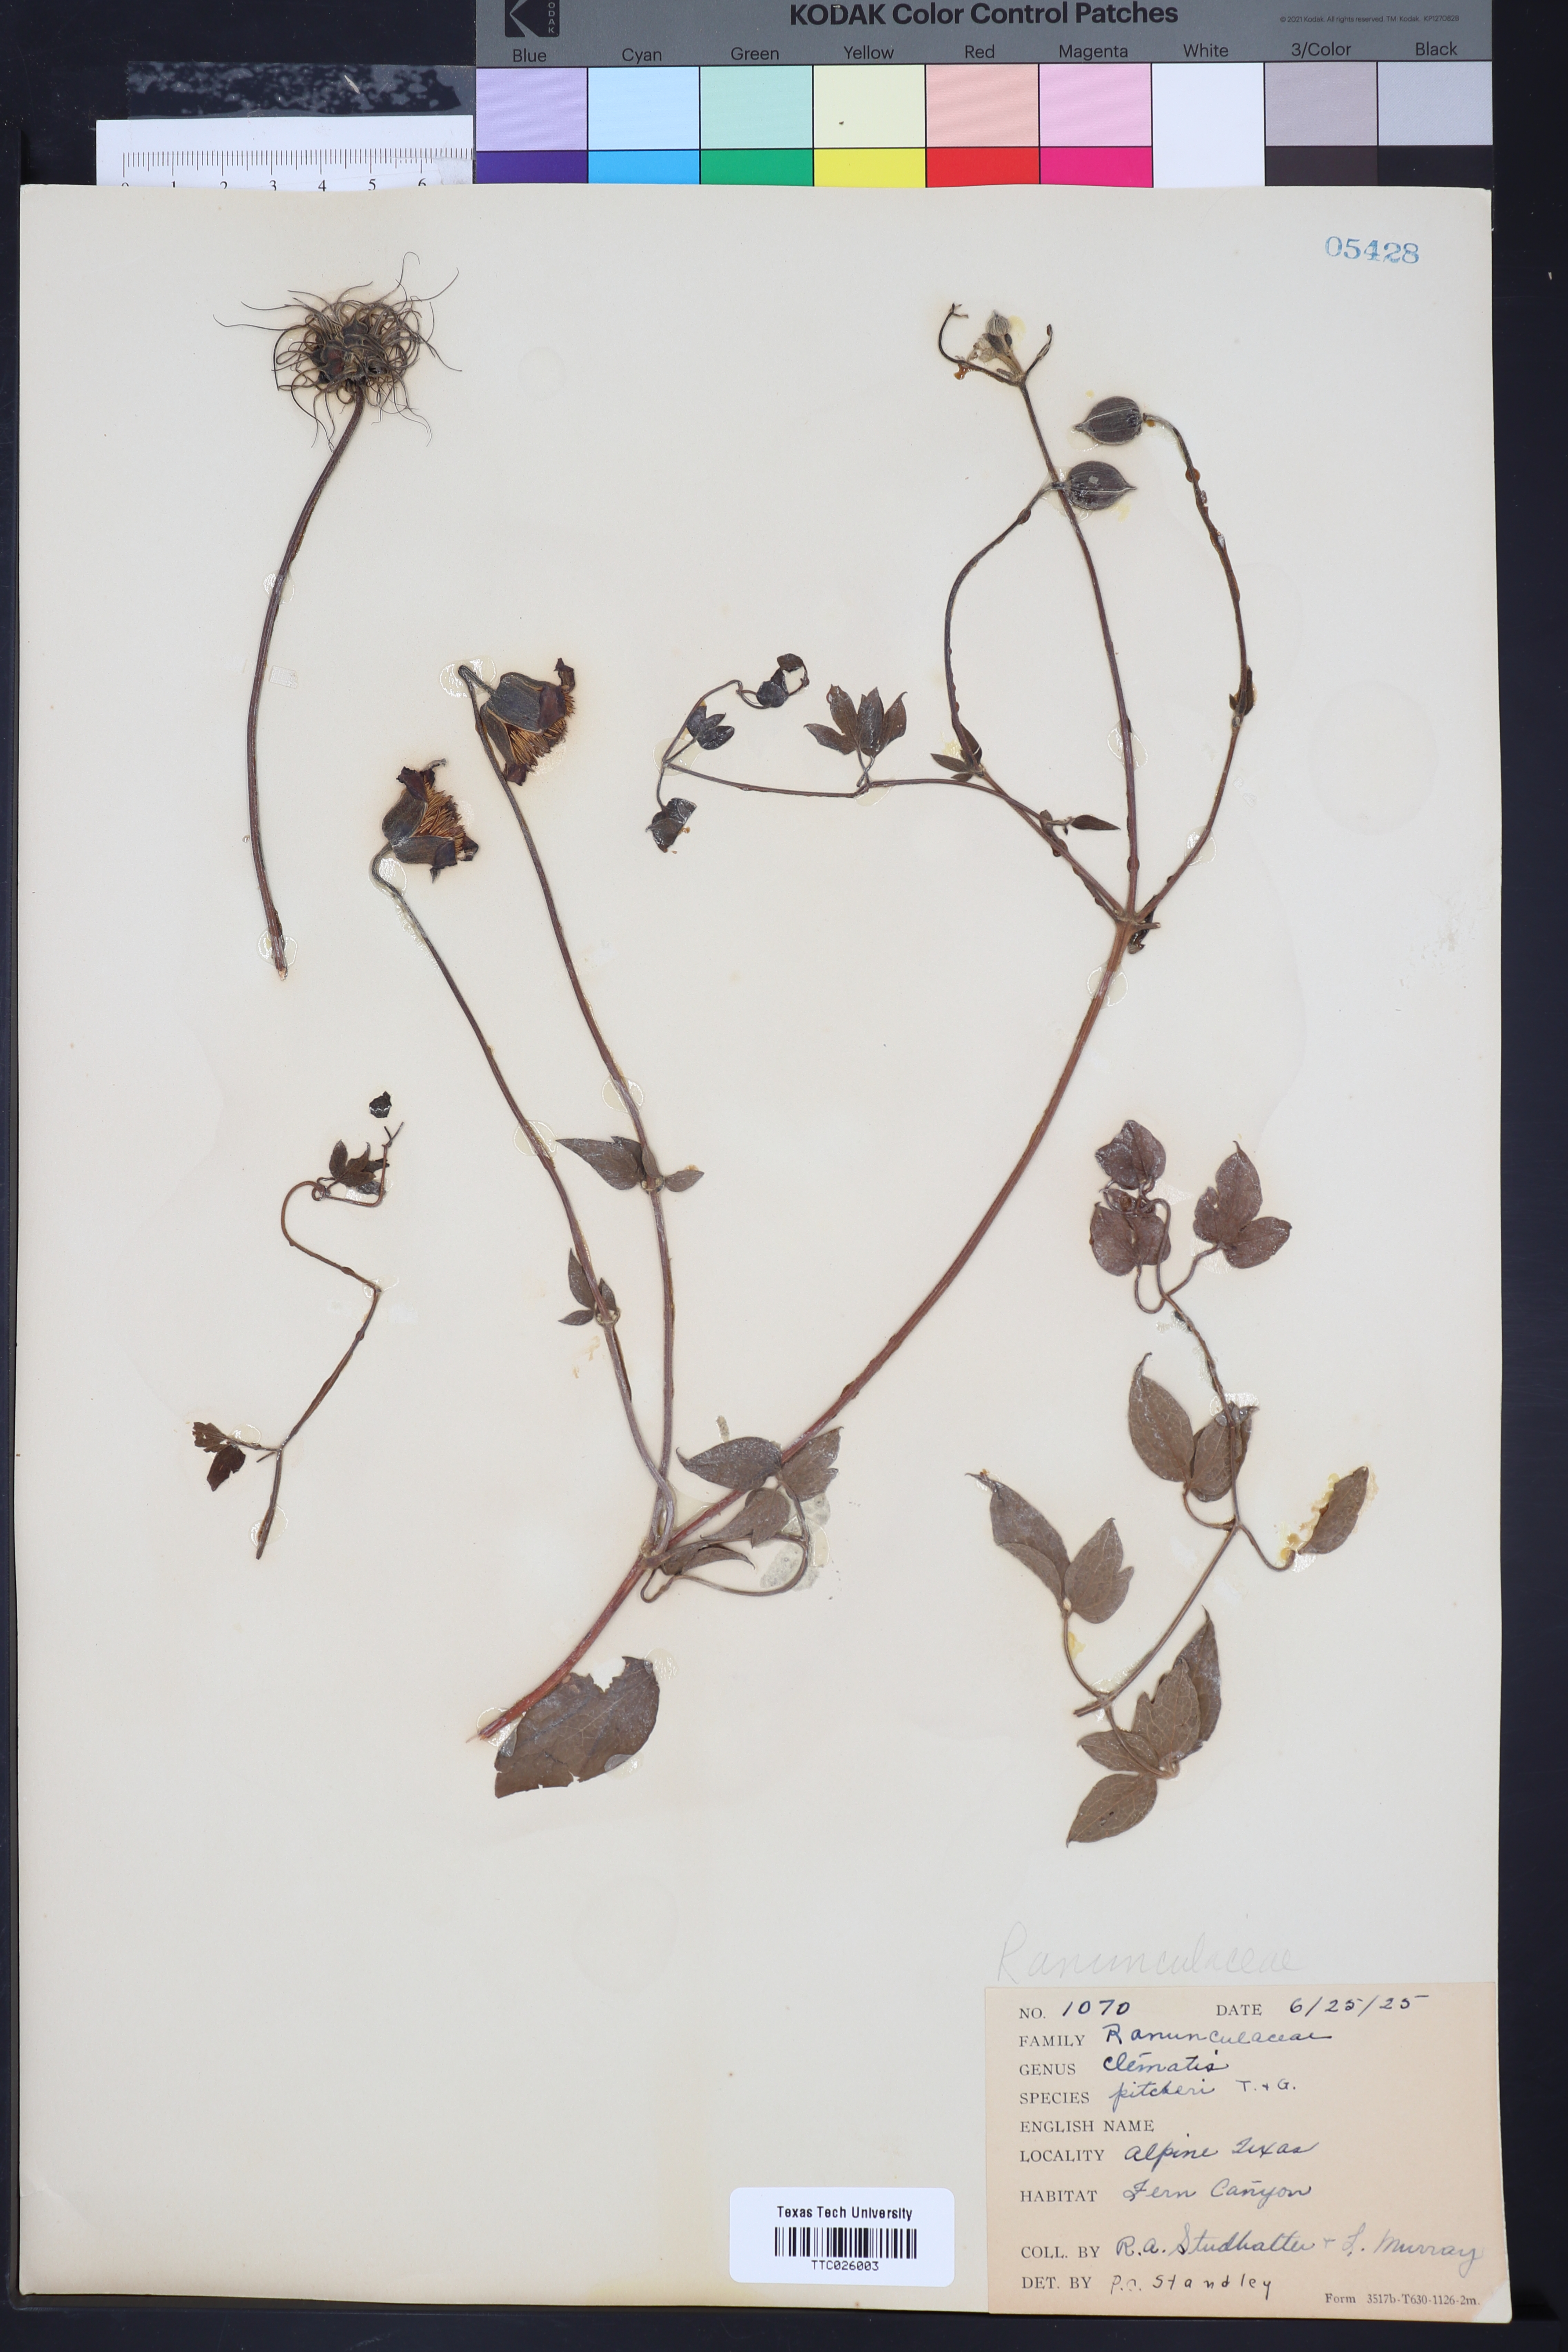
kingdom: Plantae
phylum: Tracheophyta
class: Magnoliopsida
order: Ranunculales
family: Ranunculaceae
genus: Clematis
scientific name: Clematis pitcheri
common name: Bellflower clematis
